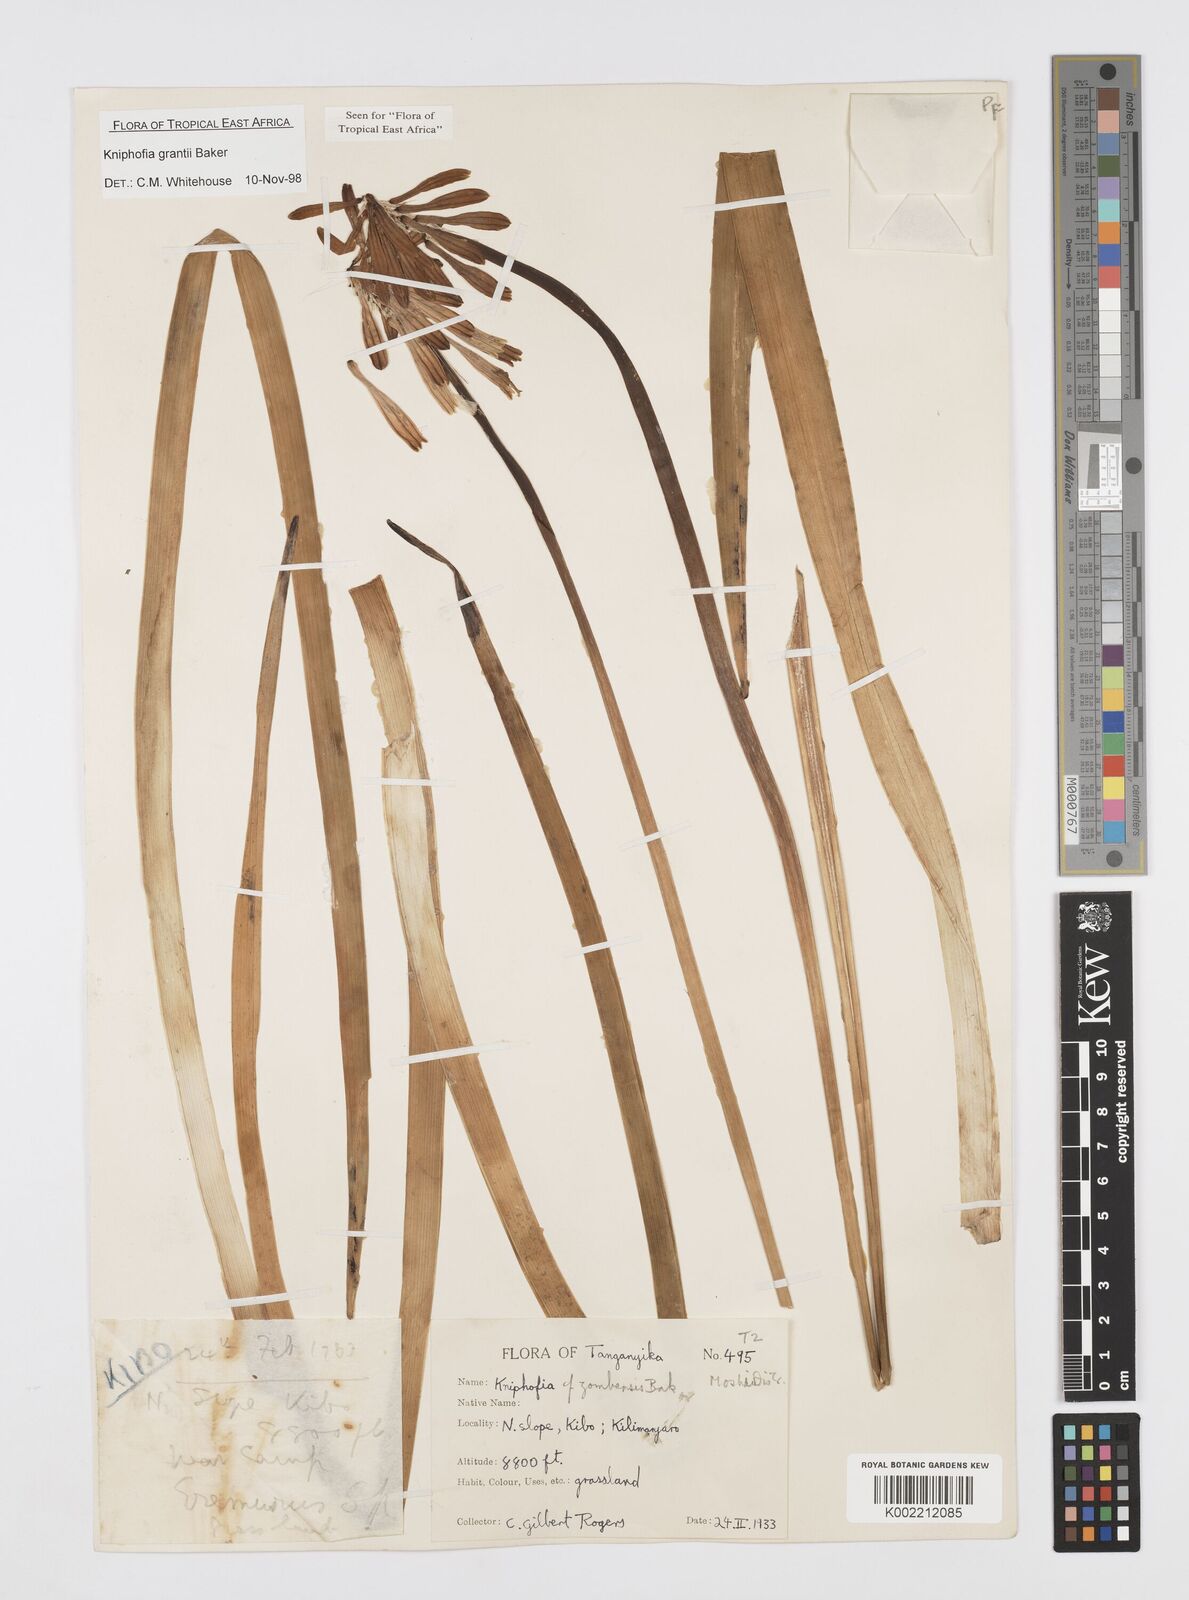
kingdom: Plantae
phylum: Tracheophyta
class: Liliopsida
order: Asparagales
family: Asphodelaceae
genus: Kniphofia
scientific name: Kniphofia grantii
